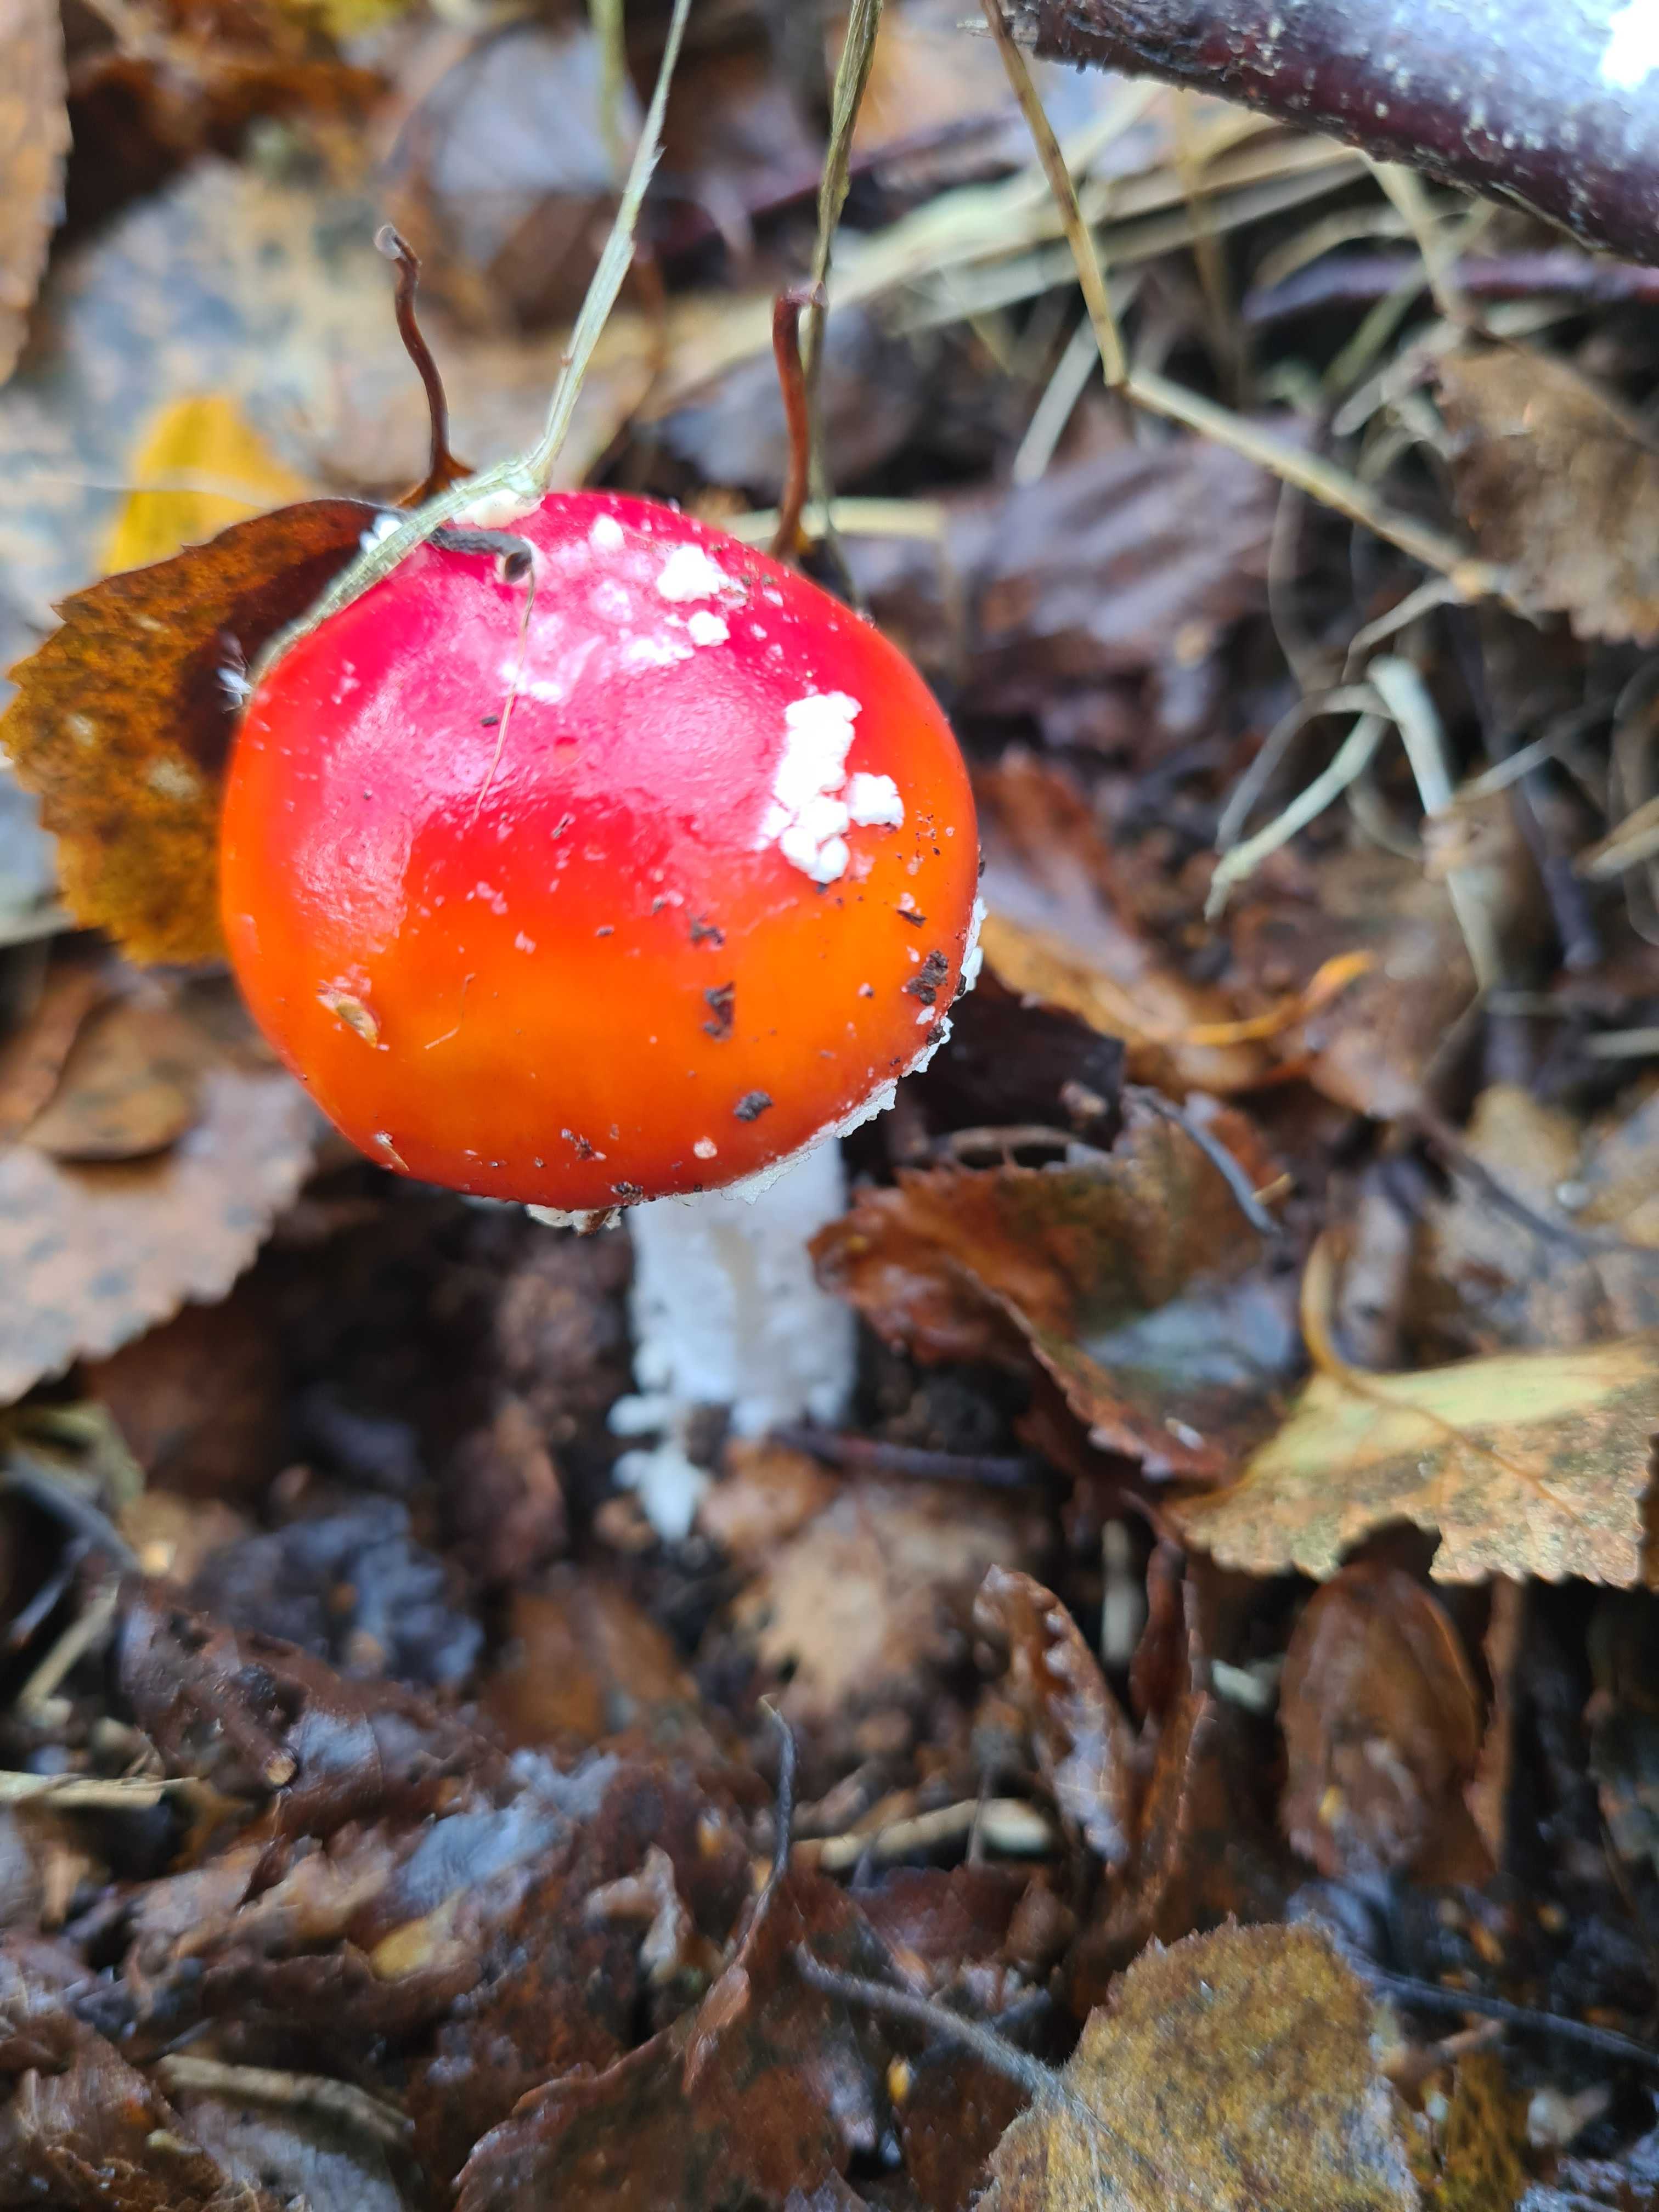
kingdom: Fungi
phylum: Basidiomycota
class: Agaricomycetes
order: Agaricales
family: Amanitaceae
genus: Amanita
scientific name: Amanita muscaria
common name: rød fluesvamp
